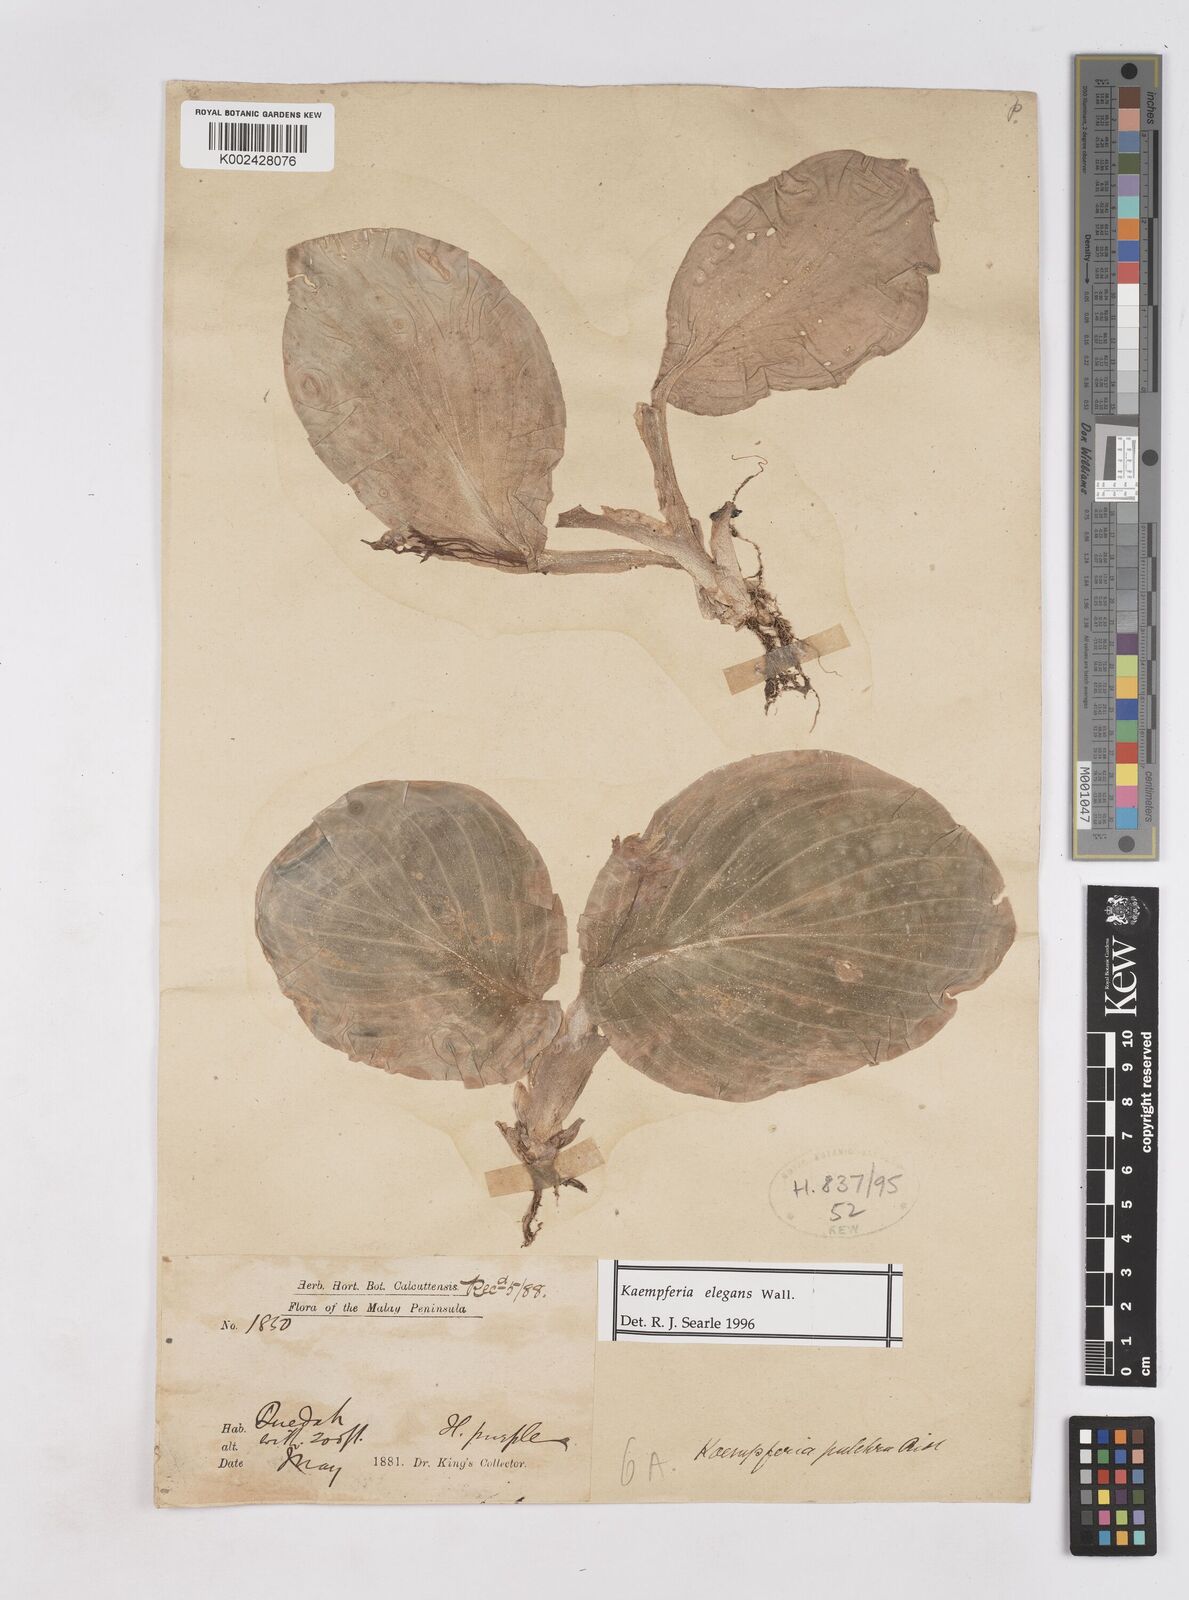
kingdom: Plantae
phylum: Tracheophyta
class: Liliopsida
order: Zingiberales
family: Zingiberaceae
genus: Kaempferia
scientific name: Kaempferia elegans
